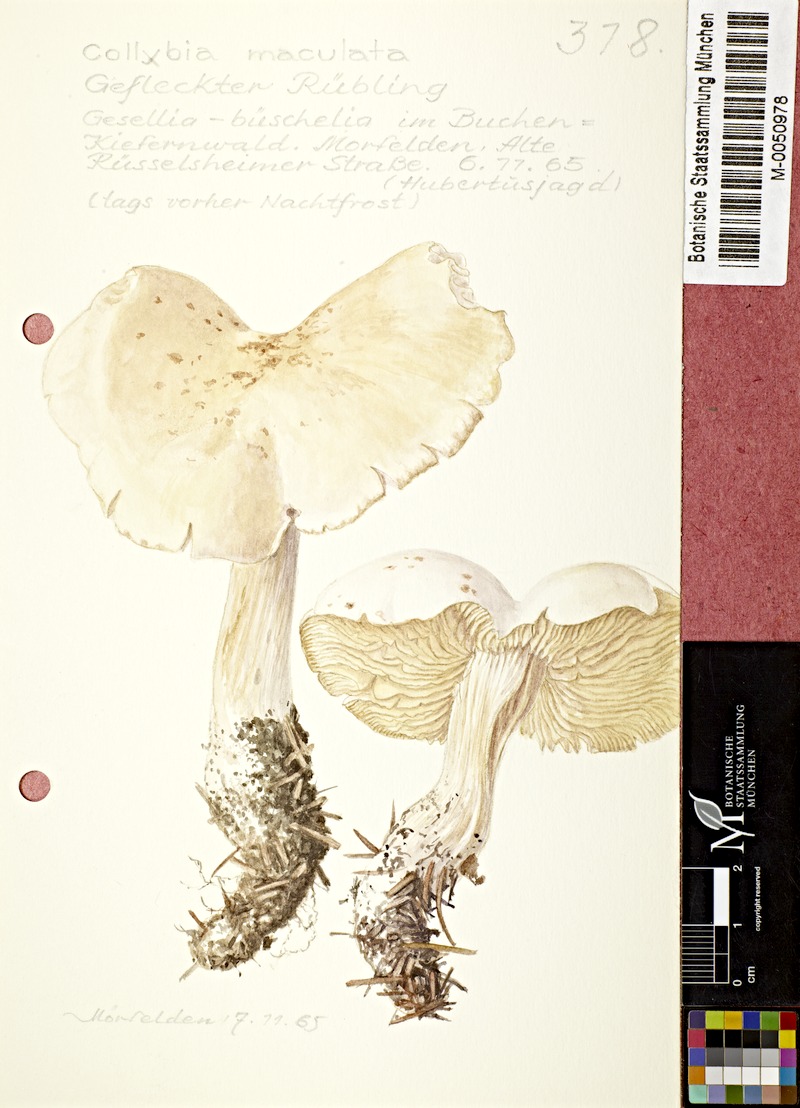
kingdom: Fungi
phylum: Basidiomycota
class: Agaricomycetes
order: Agaricales
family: Omphalotaceae
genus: Rhodocollybia
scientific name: Rhodocollybia maculata
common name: Spotted tough-shank
